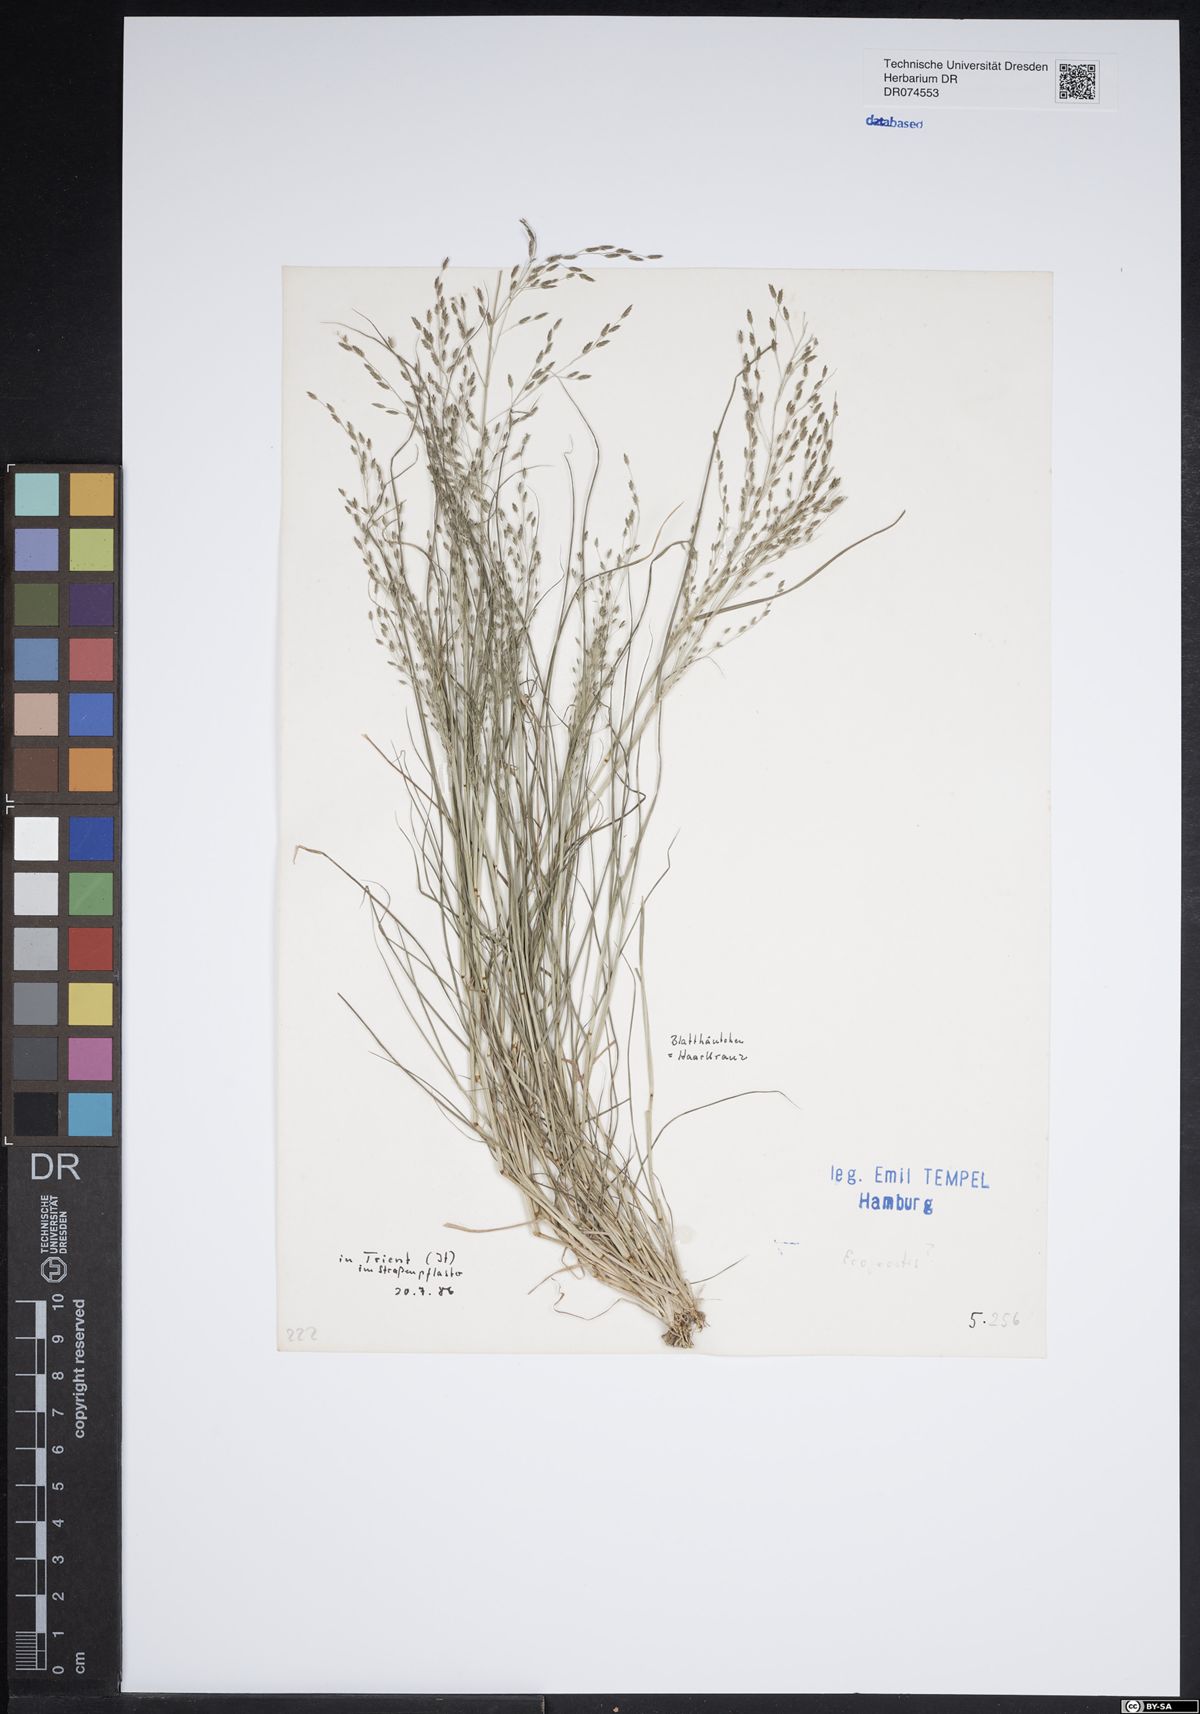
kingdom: Plantae
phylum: Tracheophyta
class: Liliopsida
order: Poales
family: Poaceae
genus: Eragrostis
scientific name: Eragrostis
